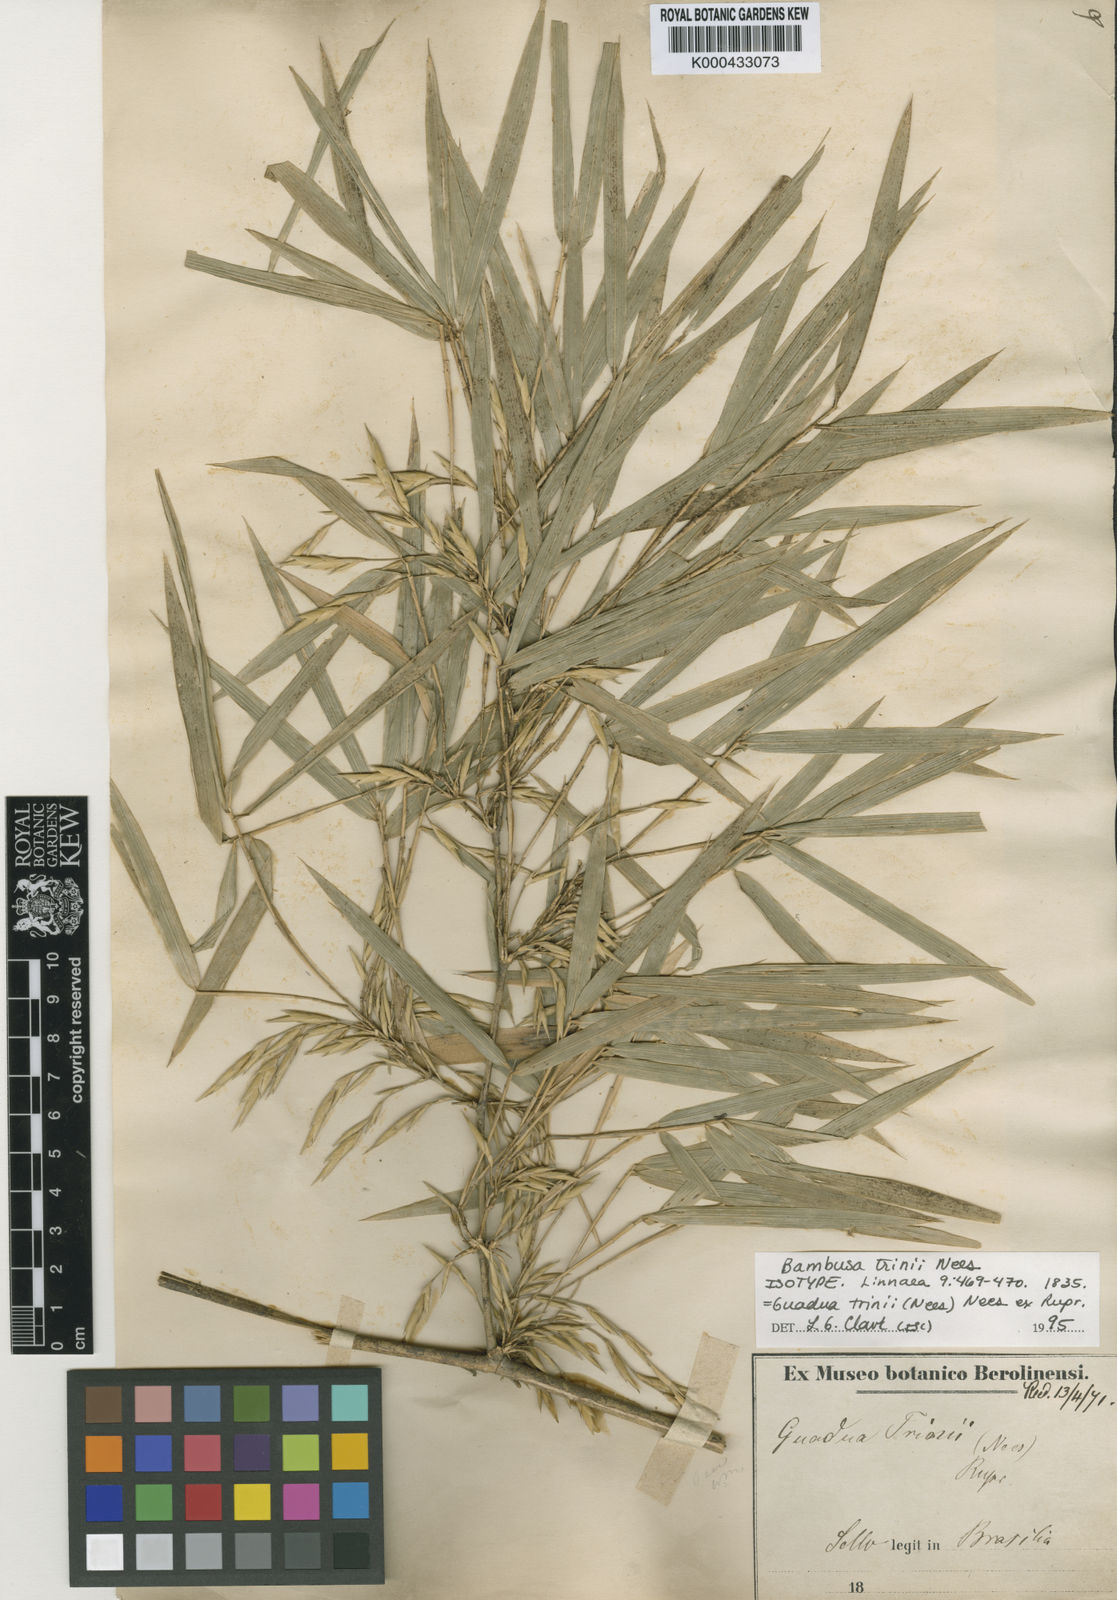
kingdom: Plantae
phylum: Tracheophyta
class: Liliopsida
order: Poales
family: Poaceae
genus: Guadua
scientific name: Guadua trinii
